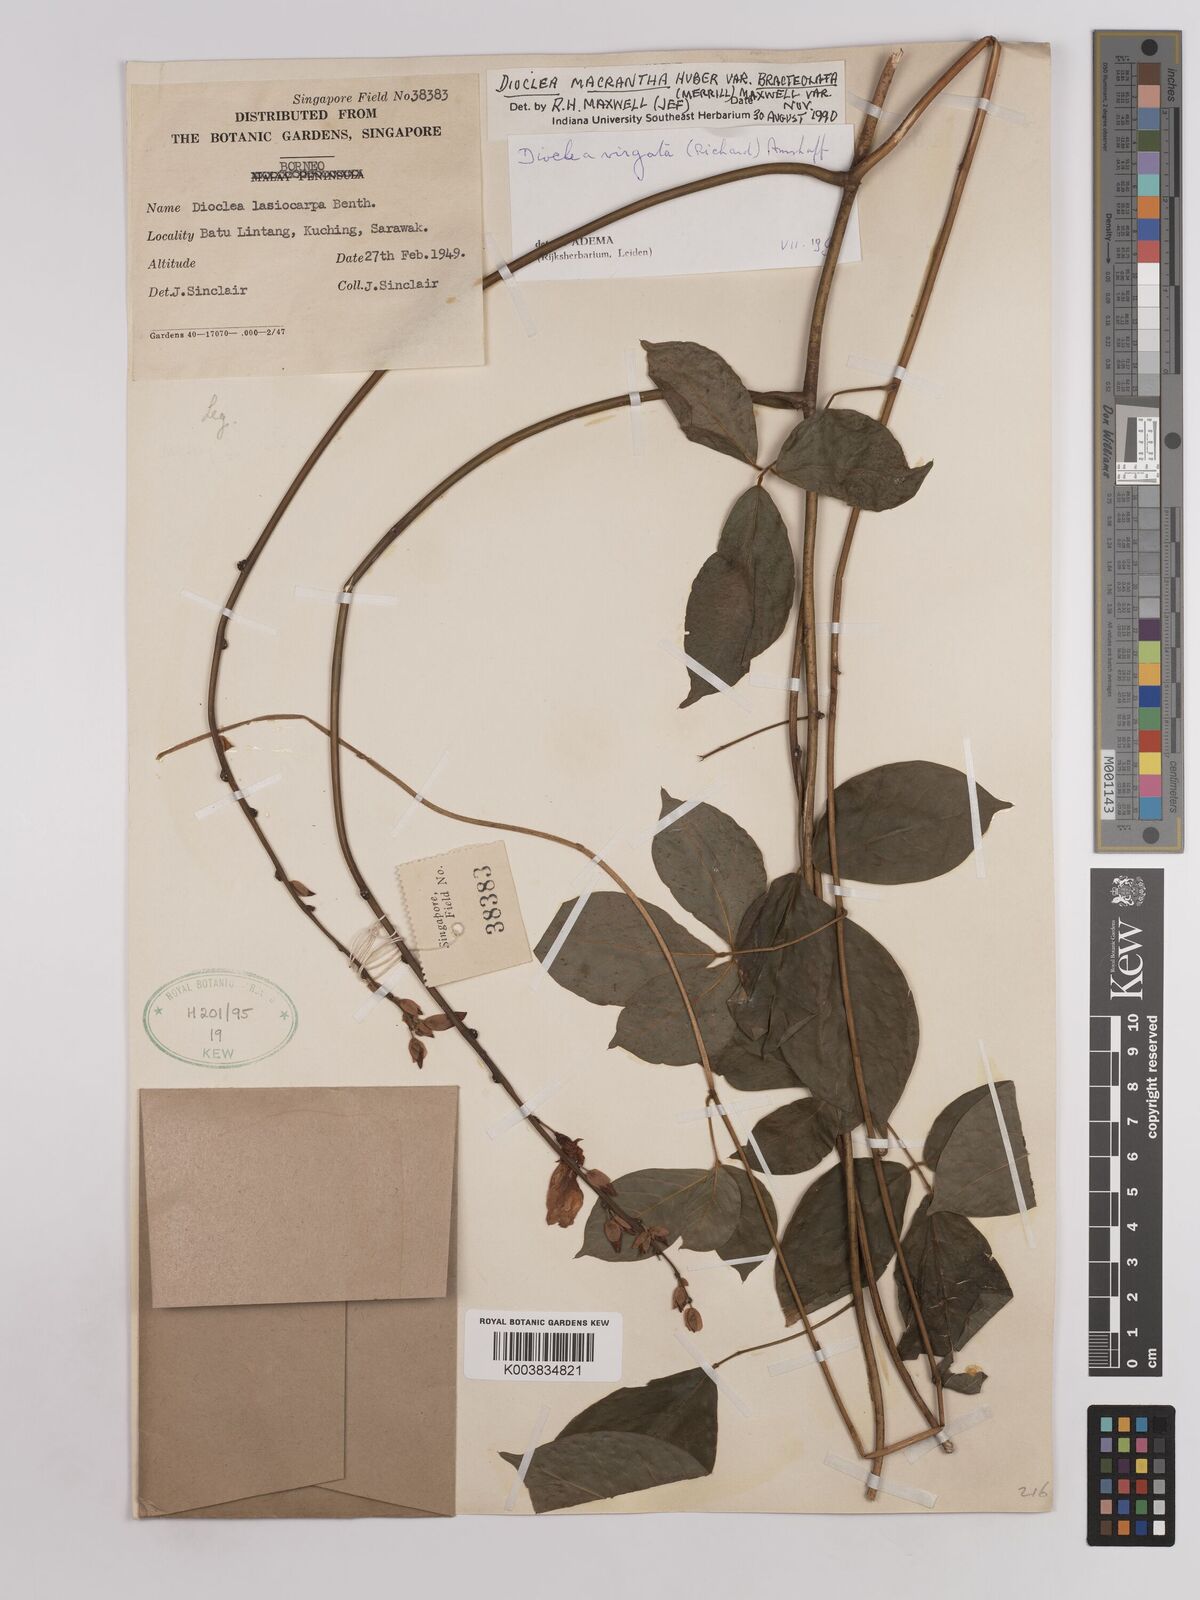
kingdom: Plantae
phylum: Tracheophyta
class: Magnoliopsida
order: Fabales
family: Fabaceae
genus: Dioclea
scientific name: Dioclea virgata
